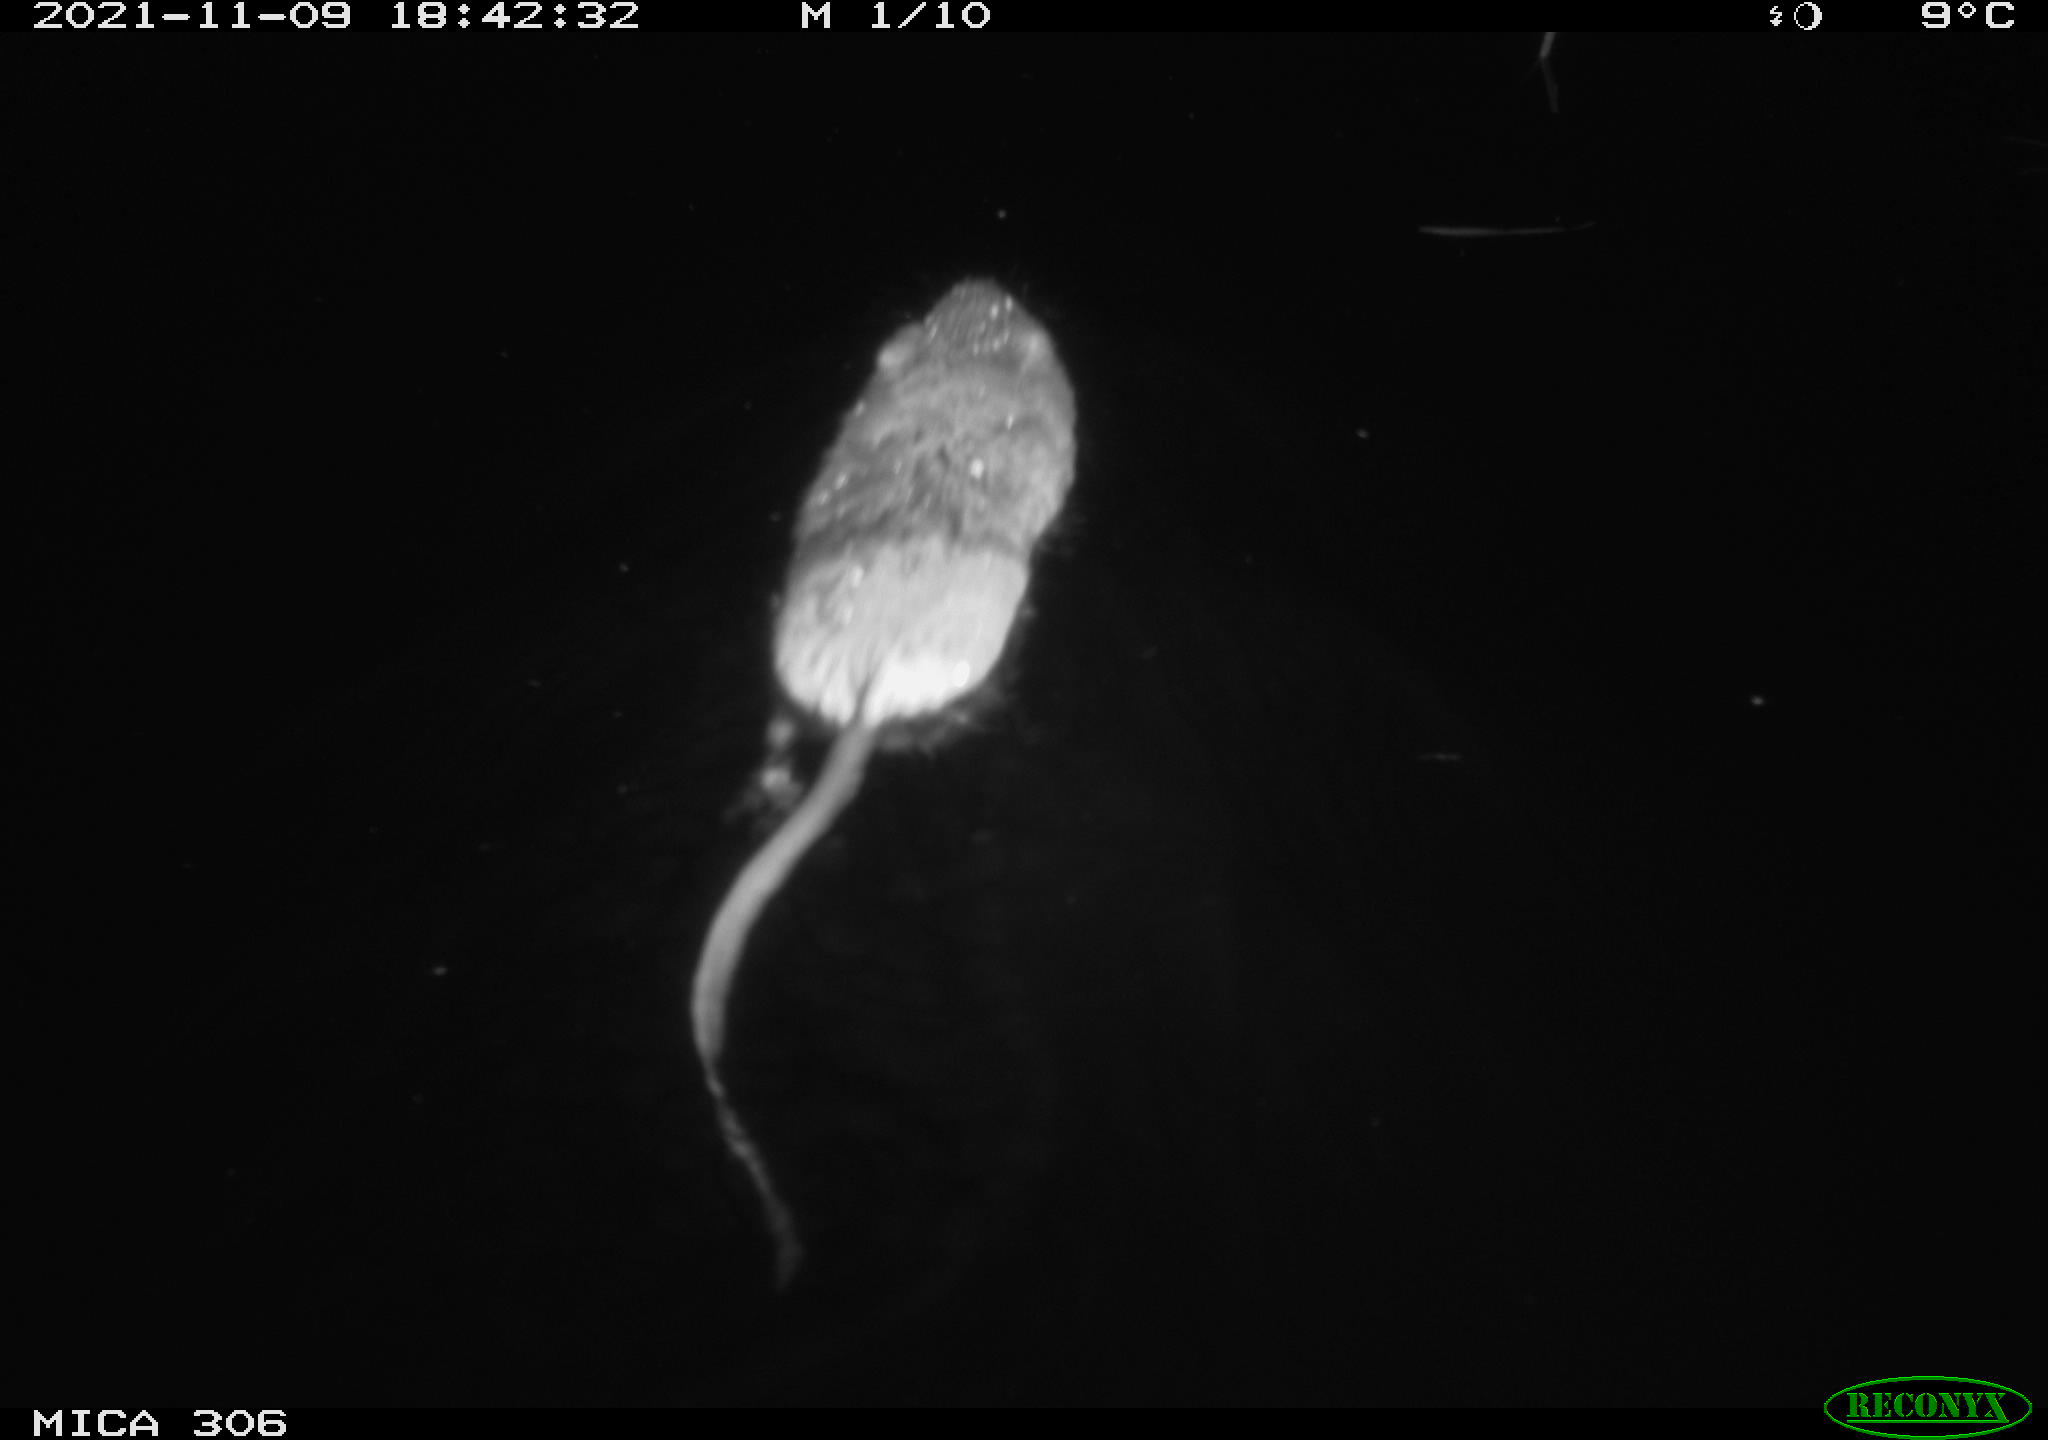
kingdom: Animalia
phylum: Chordata
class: Mammalia
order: Rodentia
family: Cricetidae
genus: Ondatra
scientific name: Ondatra zibethicus
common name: Muskrat
